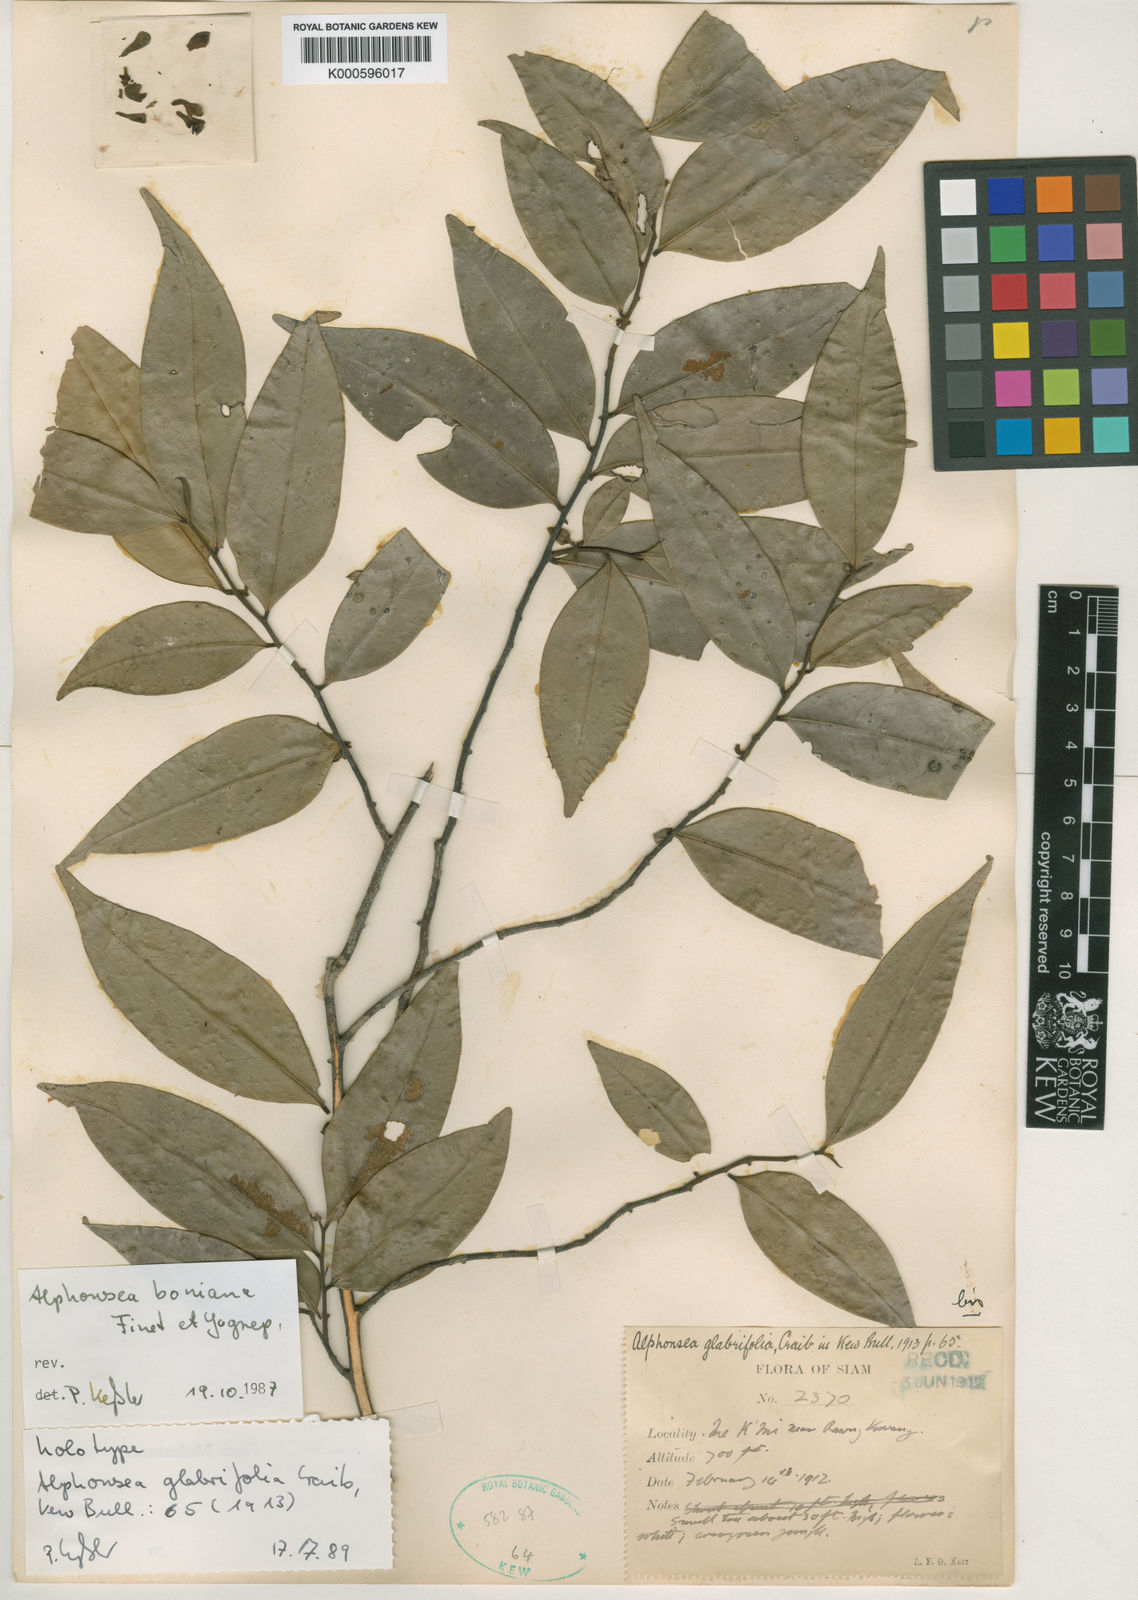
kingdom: Plantae
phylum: Tracheophyta
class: Magnoliopsida
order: Magnoliales
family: Annonaceae
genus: Alphonsea
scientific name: Alphonsea boniana
